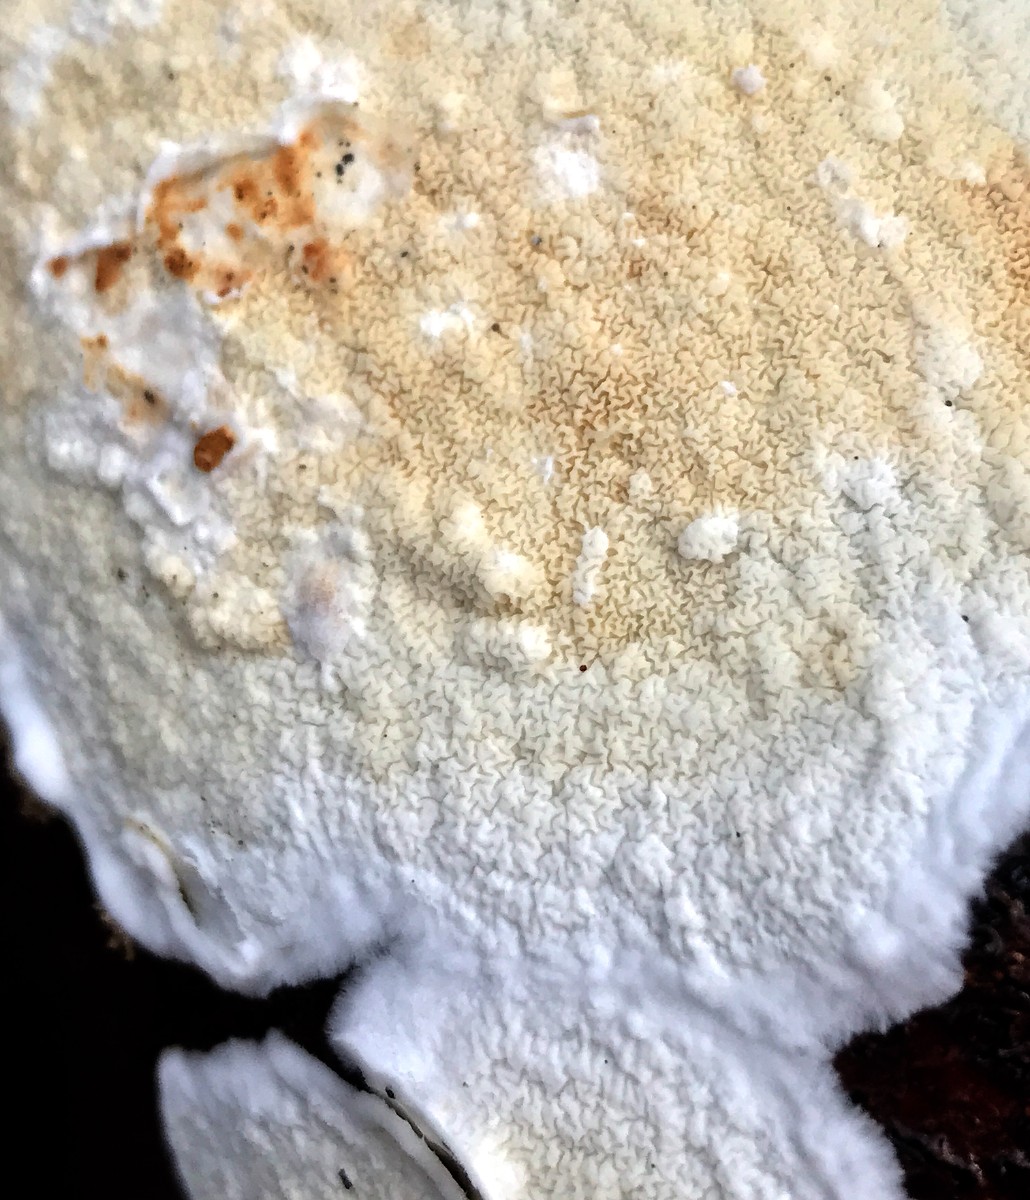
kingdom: Fungi
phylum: Basidiomycota
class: Agaricomycetes
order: Polyporales
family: Irpicaceae
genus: Byssomerulius
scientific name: Byssomerulius corium
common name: læder-åresvamp
